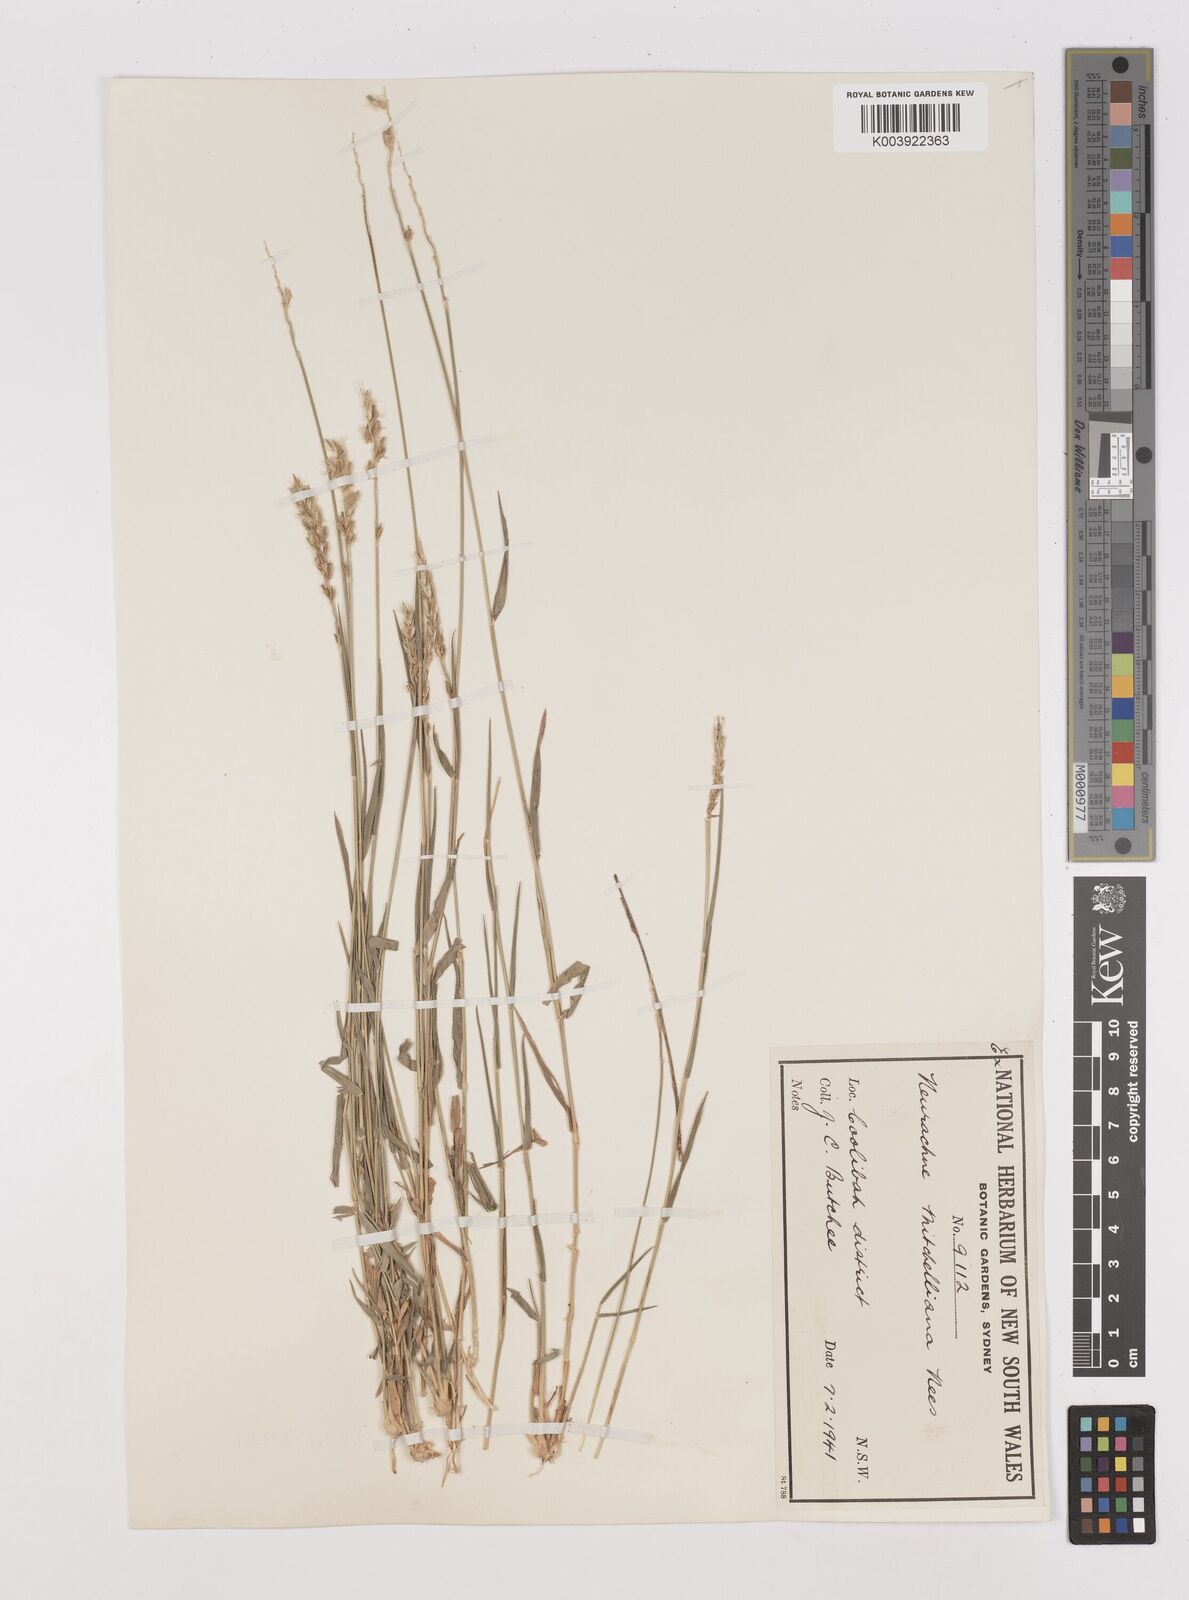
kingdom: Plantae
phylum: Tracheophyta
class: Liliopsida
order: Poales
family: Poaceae
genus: Thyridolepis
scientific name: Thyridolepis mitchelliana
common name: Rock tassel grass
